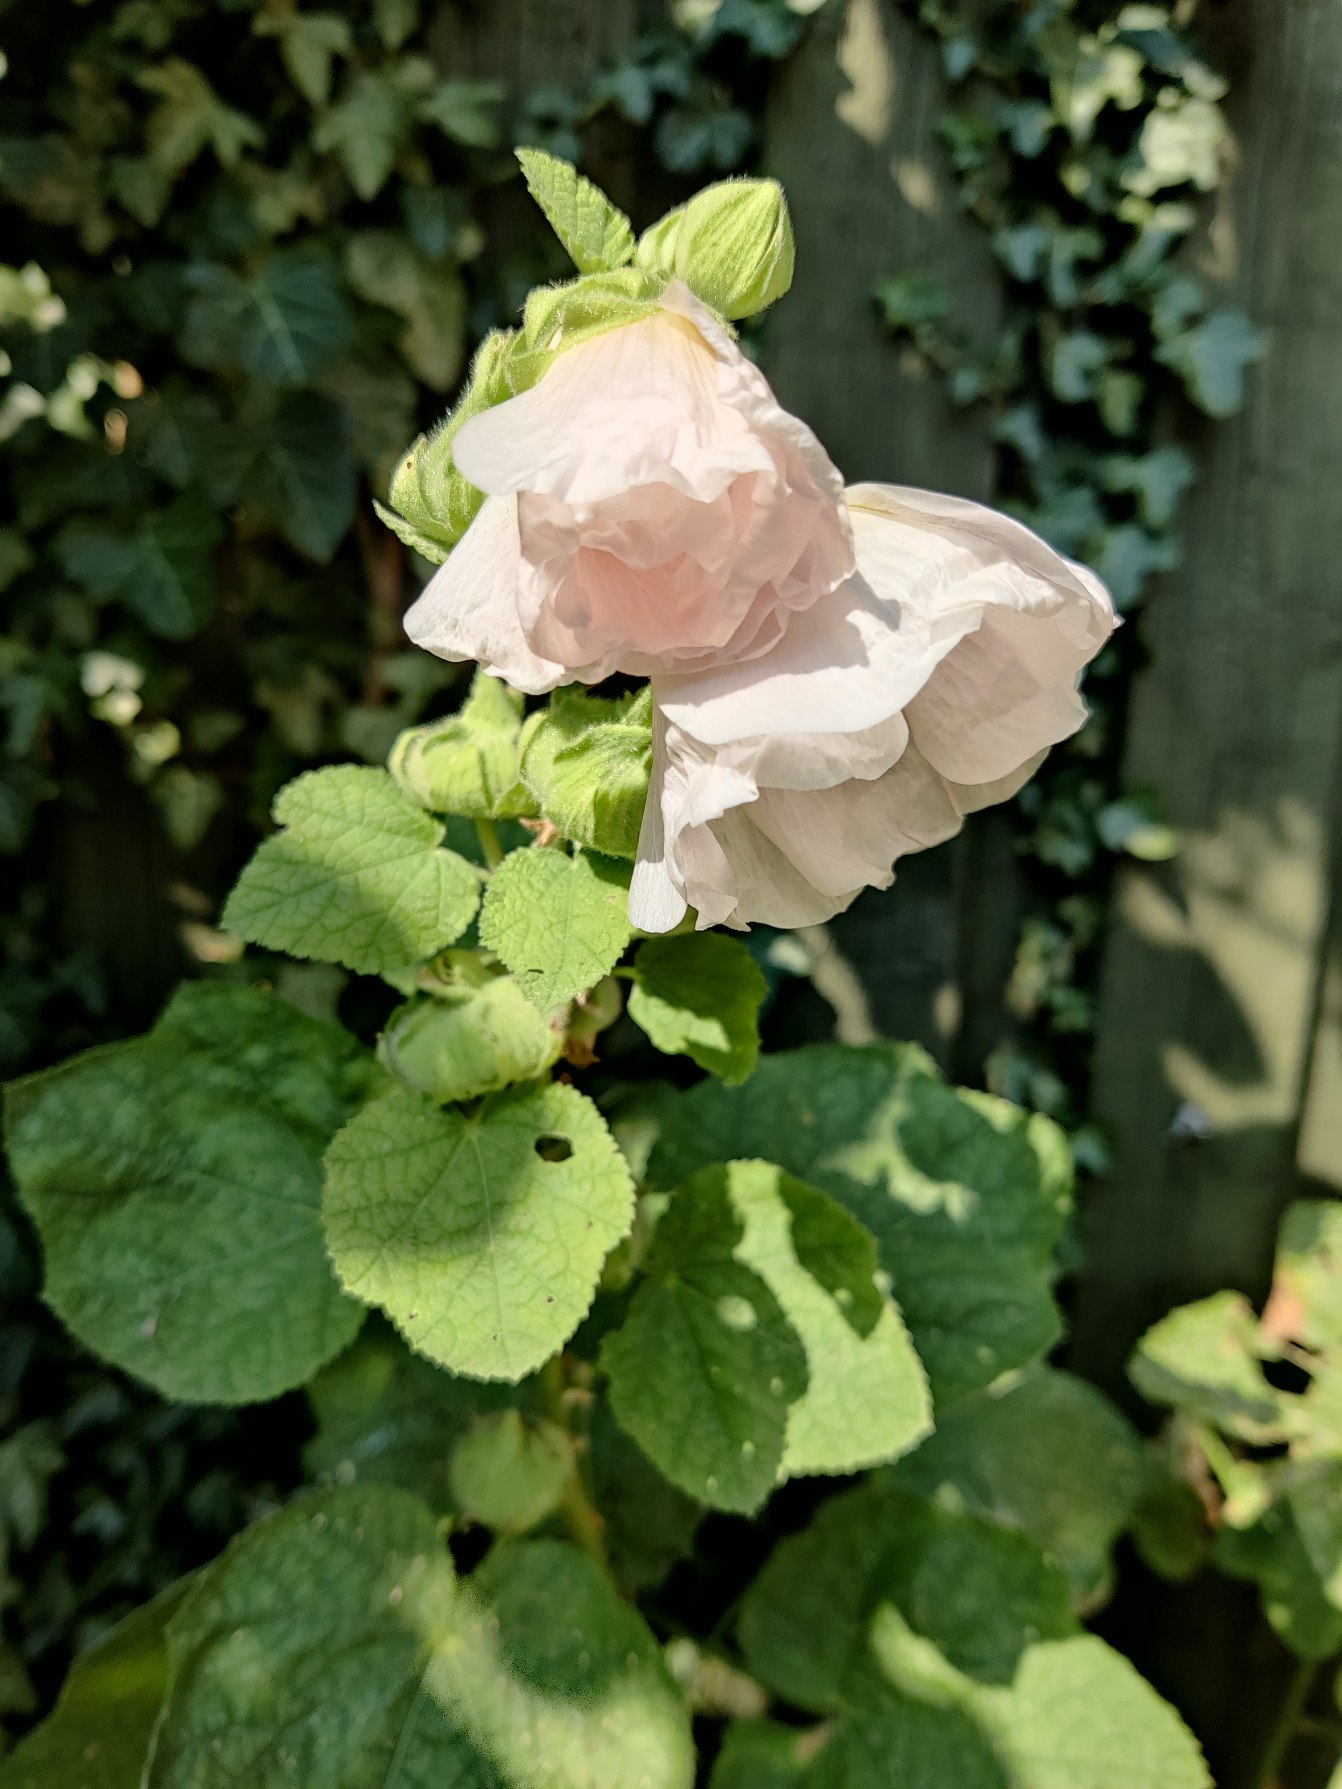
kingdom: Plantae
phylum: Tracheophyta
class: Magnoliopsida
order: Malvales
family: Malvaceae
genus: Alcea
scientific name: Alcea rosea
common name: Have-stokrose
